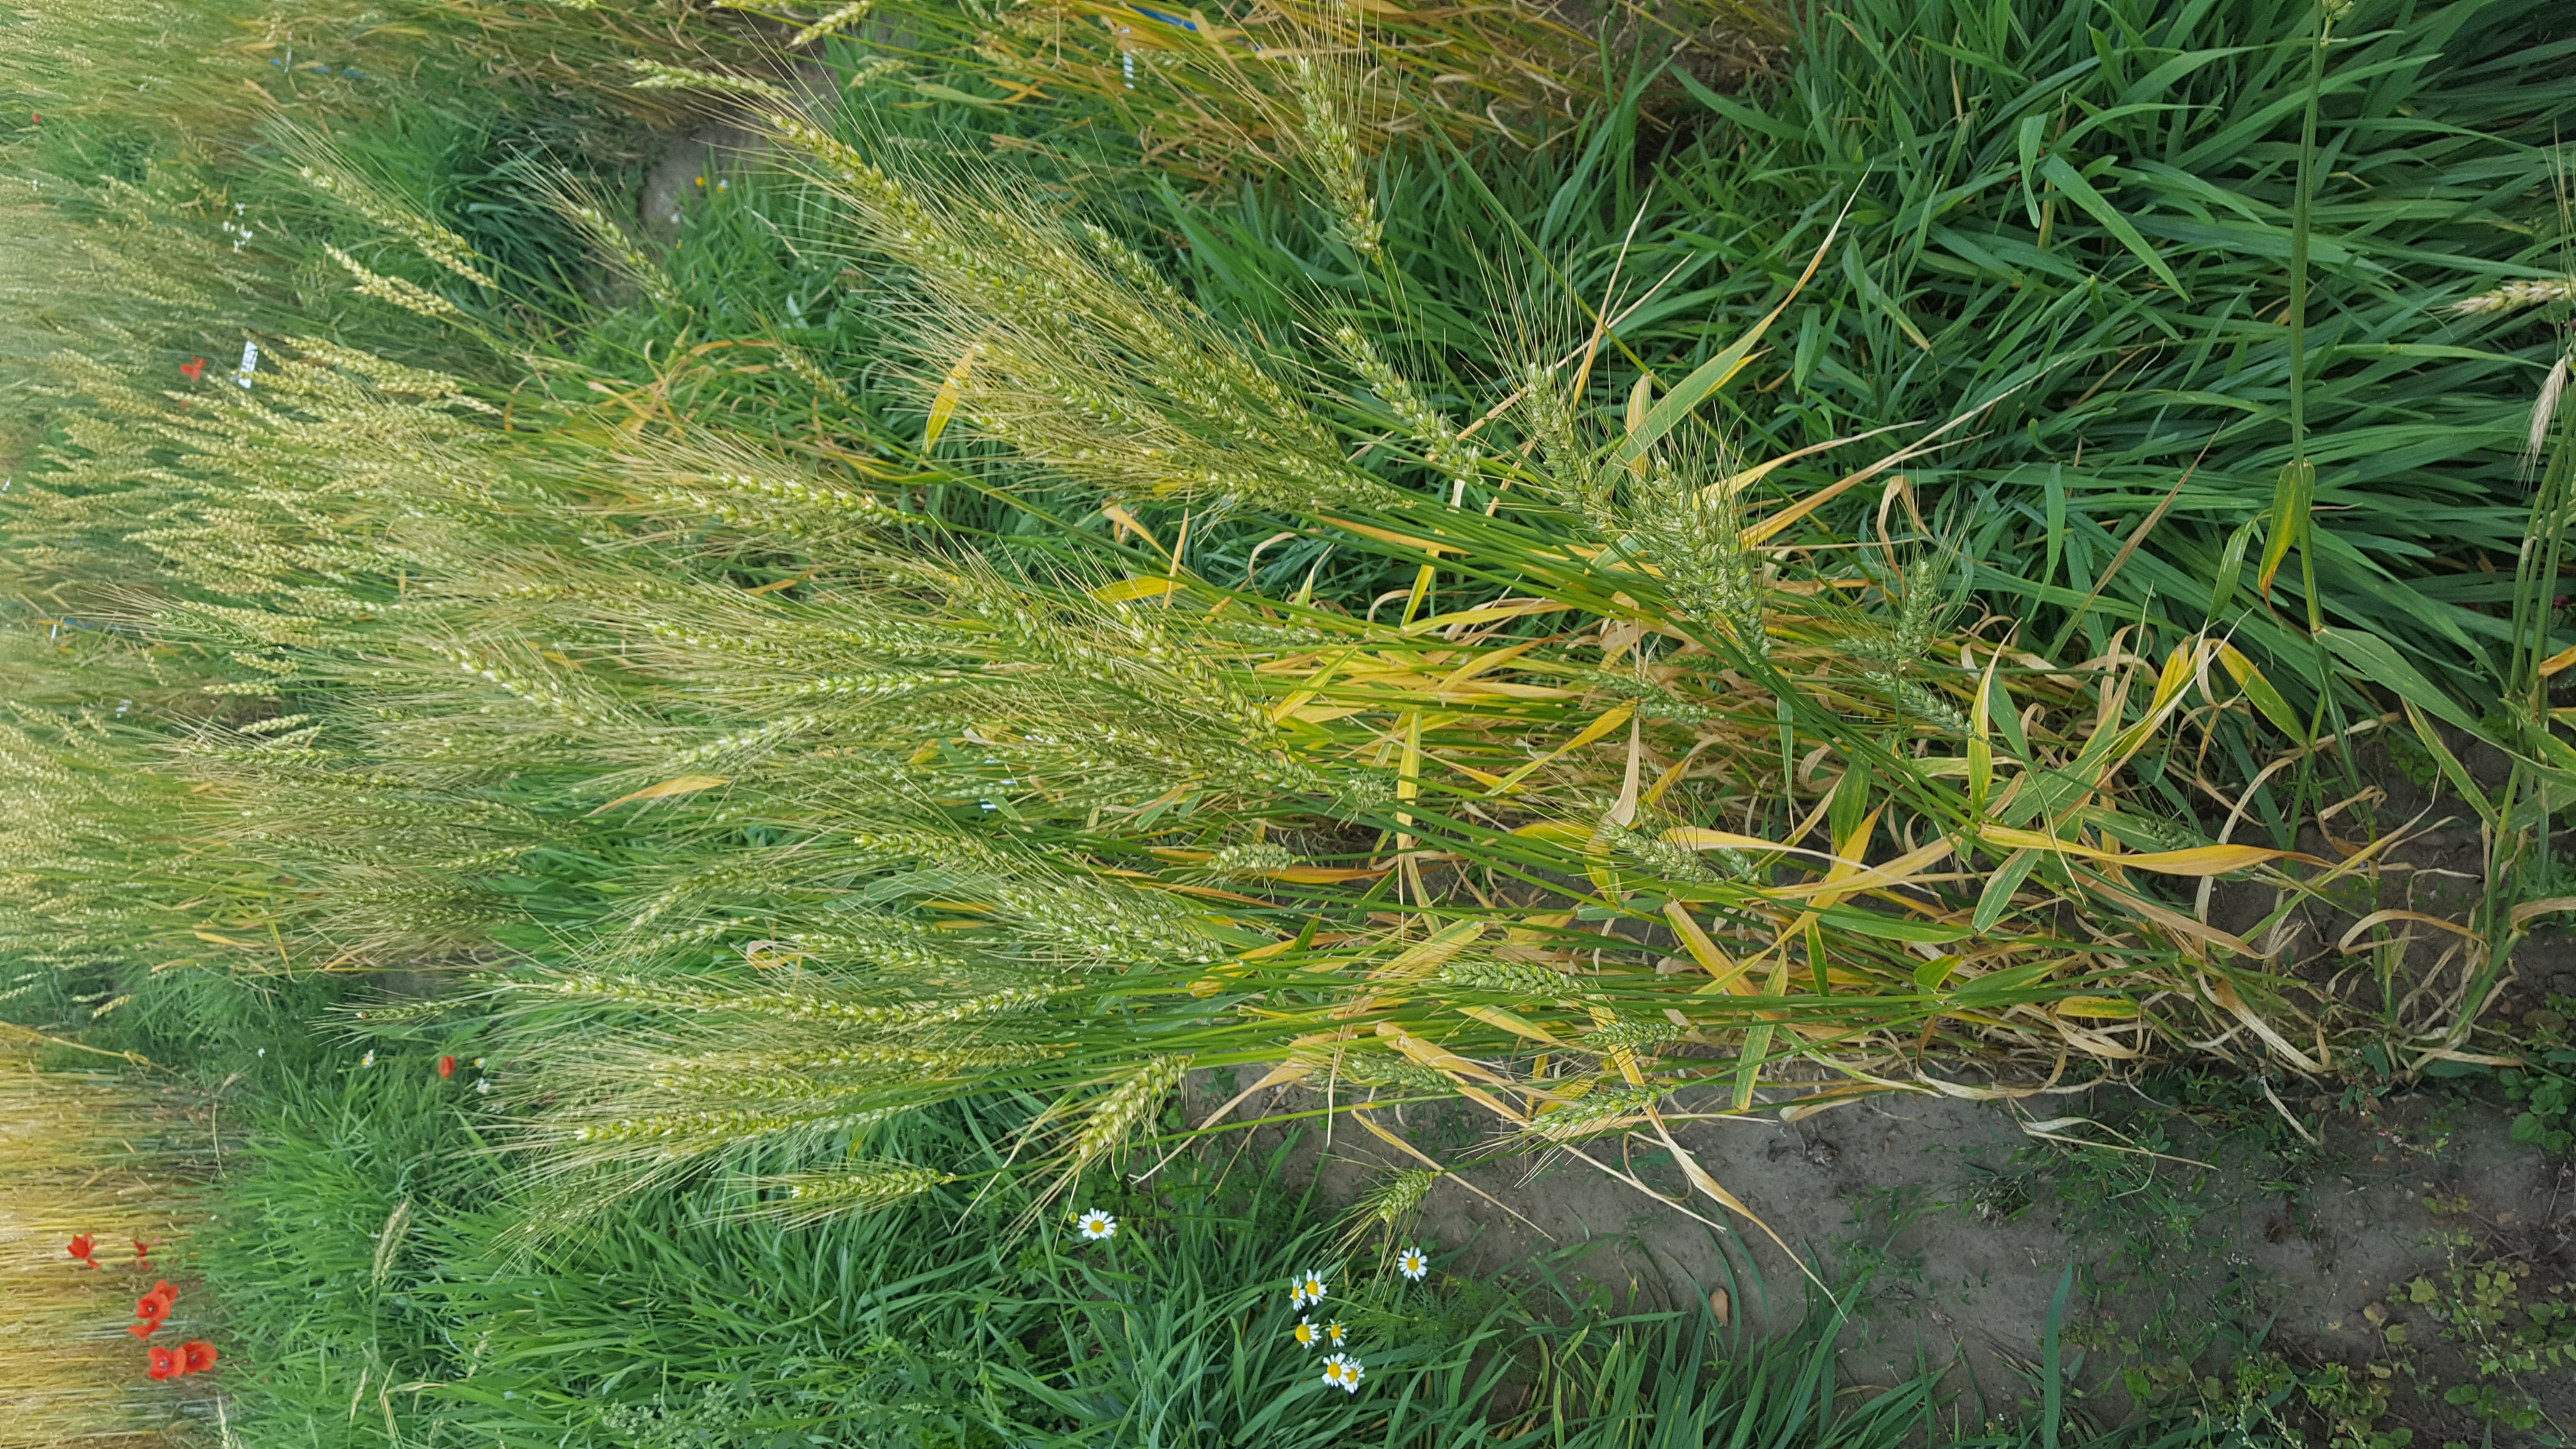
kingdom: Plantae
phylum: Tracheophyta
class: Liliopsida
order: Poales
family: Poaceae
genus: Triticum
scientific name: Triticum aestivum
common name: Common wheat
